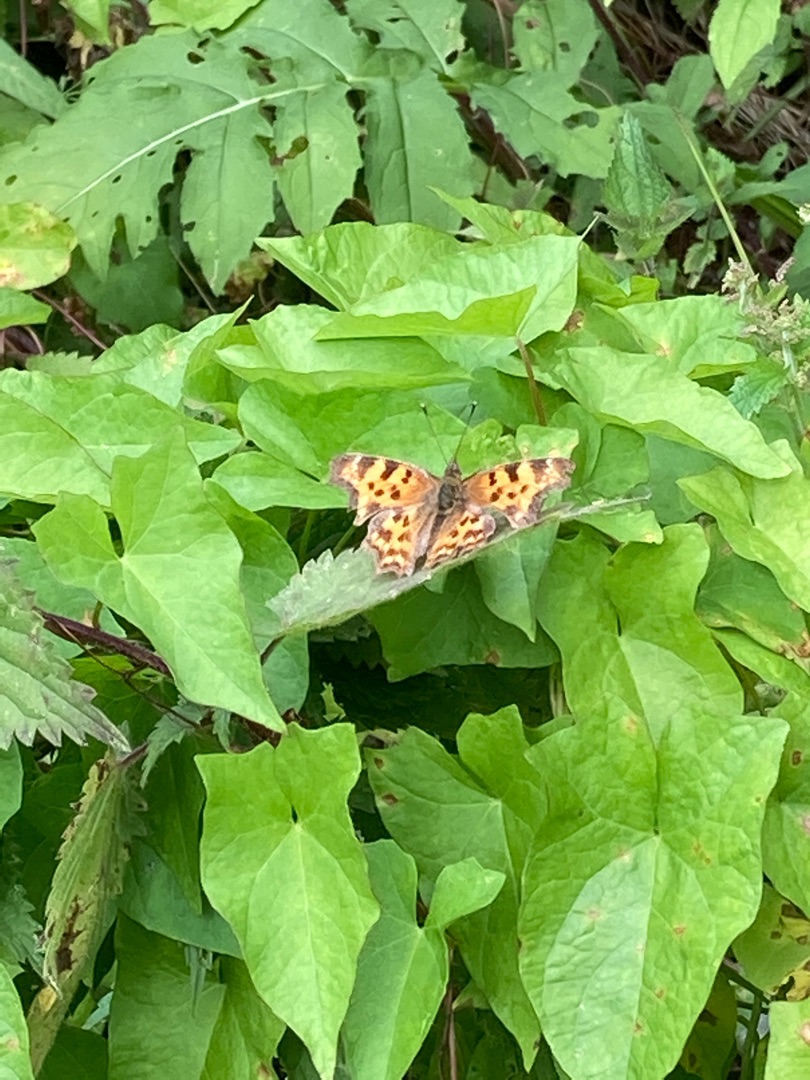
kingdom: Animalia
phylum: Arthropoda
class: Insecta
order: Lepidoptera
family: Nymphalidae
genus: Polygonia
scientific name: Polygonia c-album
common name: Det hvide C
